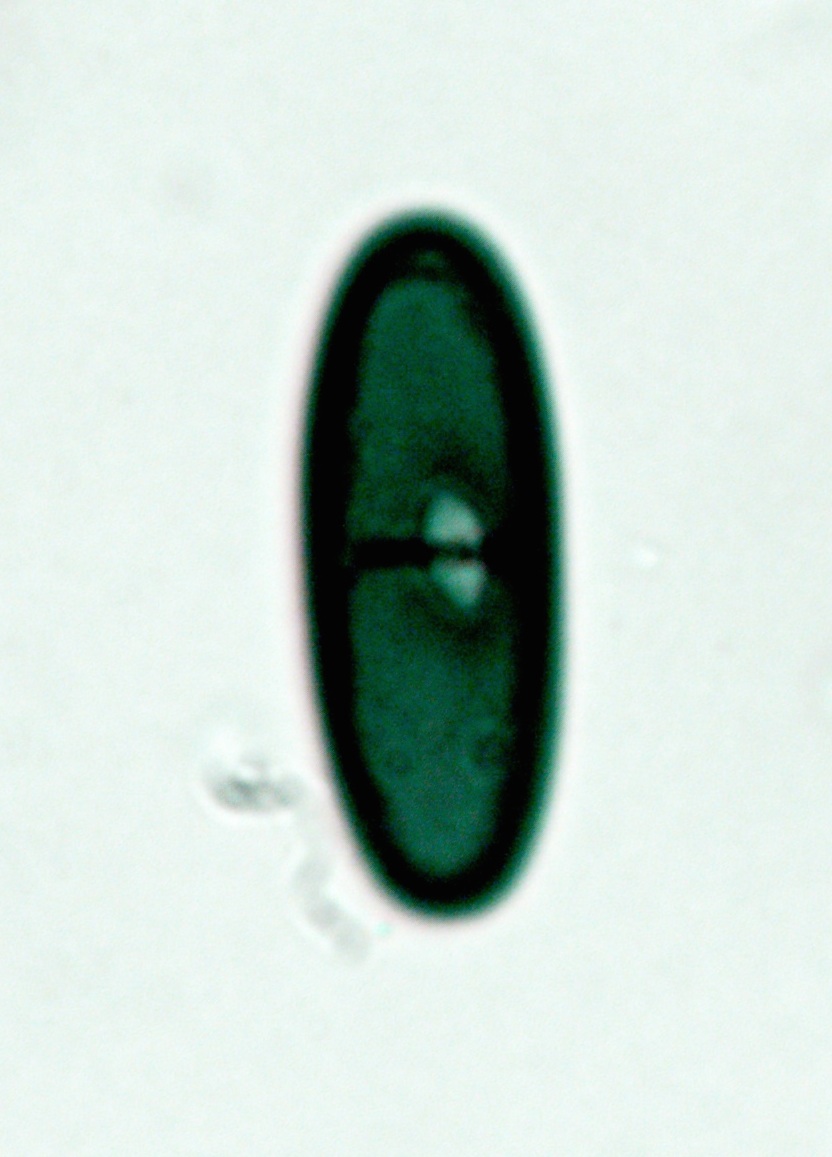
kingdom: Fungi
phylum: Ascomycota
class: Sordariomycetes
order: Xylariales
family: Xylariaceae
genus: Euepixylon
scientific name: Euepixylon udum
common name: ege-kuldyne
